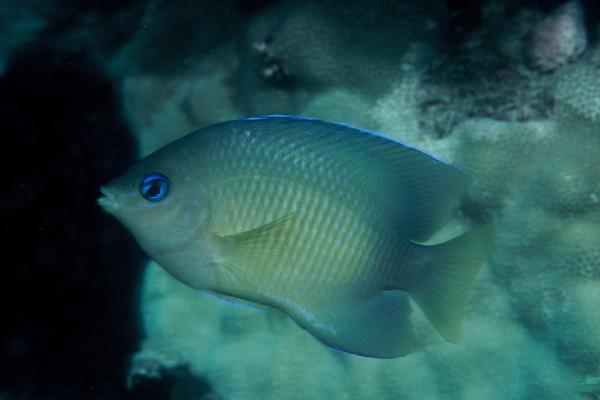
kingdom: Animalia
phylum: Chordata
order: Perciformes
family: Pomacentridae
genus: Plectroglyphidodon
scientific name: Plectroglyphidodon johnstonianus
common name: Johnston damsel
